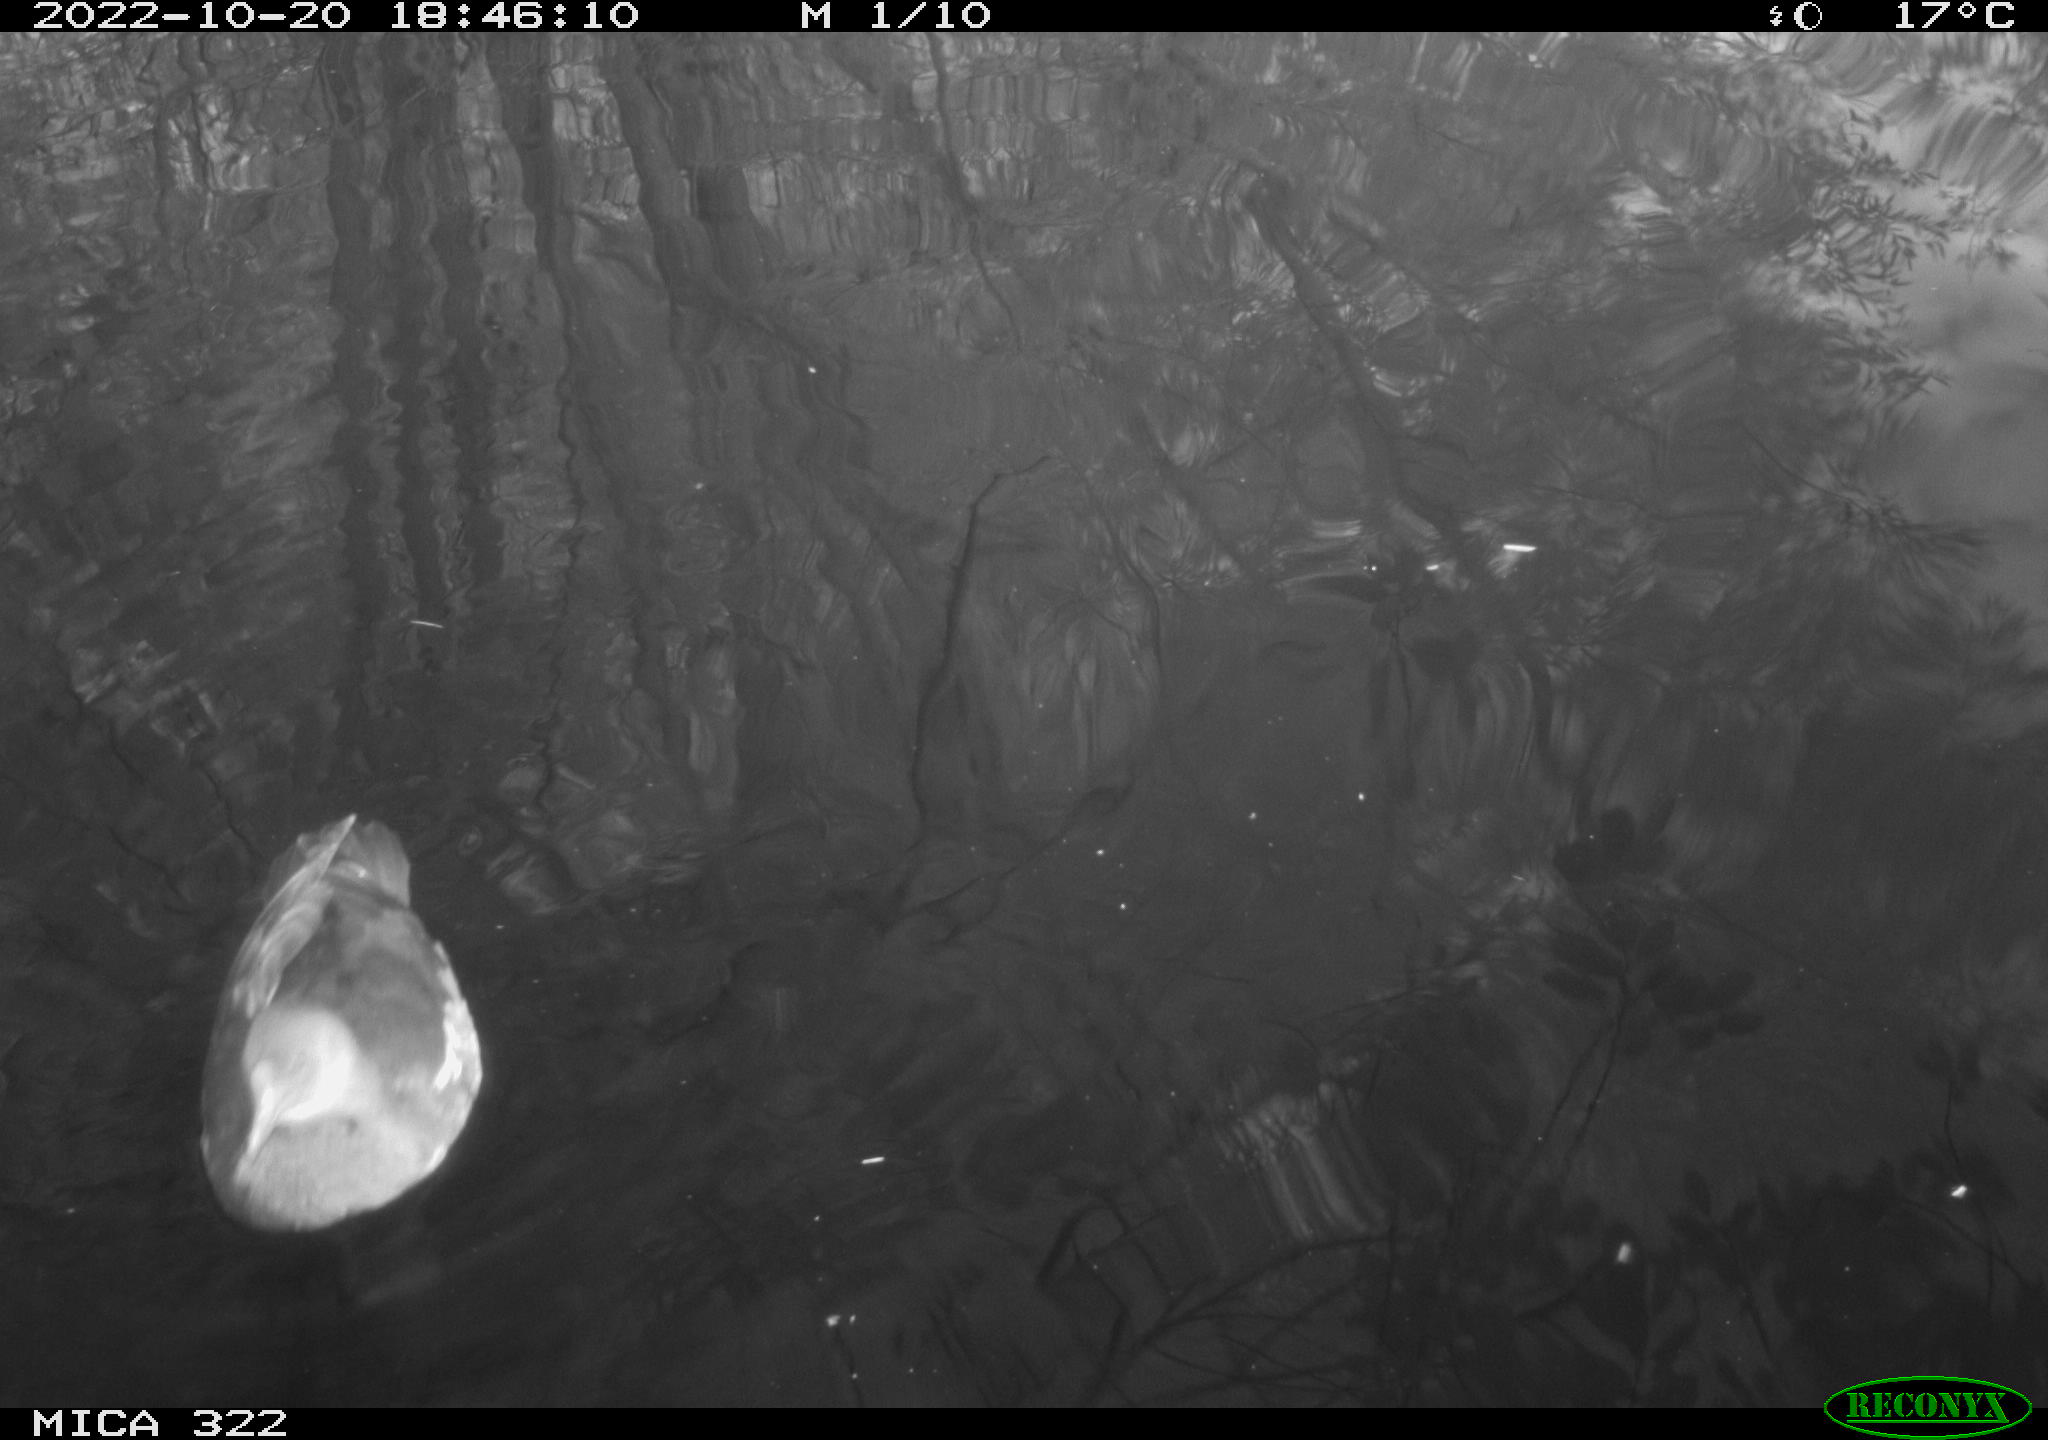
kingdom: Animalia
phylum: Chordata
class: Aves
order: Anseriformes
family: Anatidae
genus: Anas
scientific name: Anas
